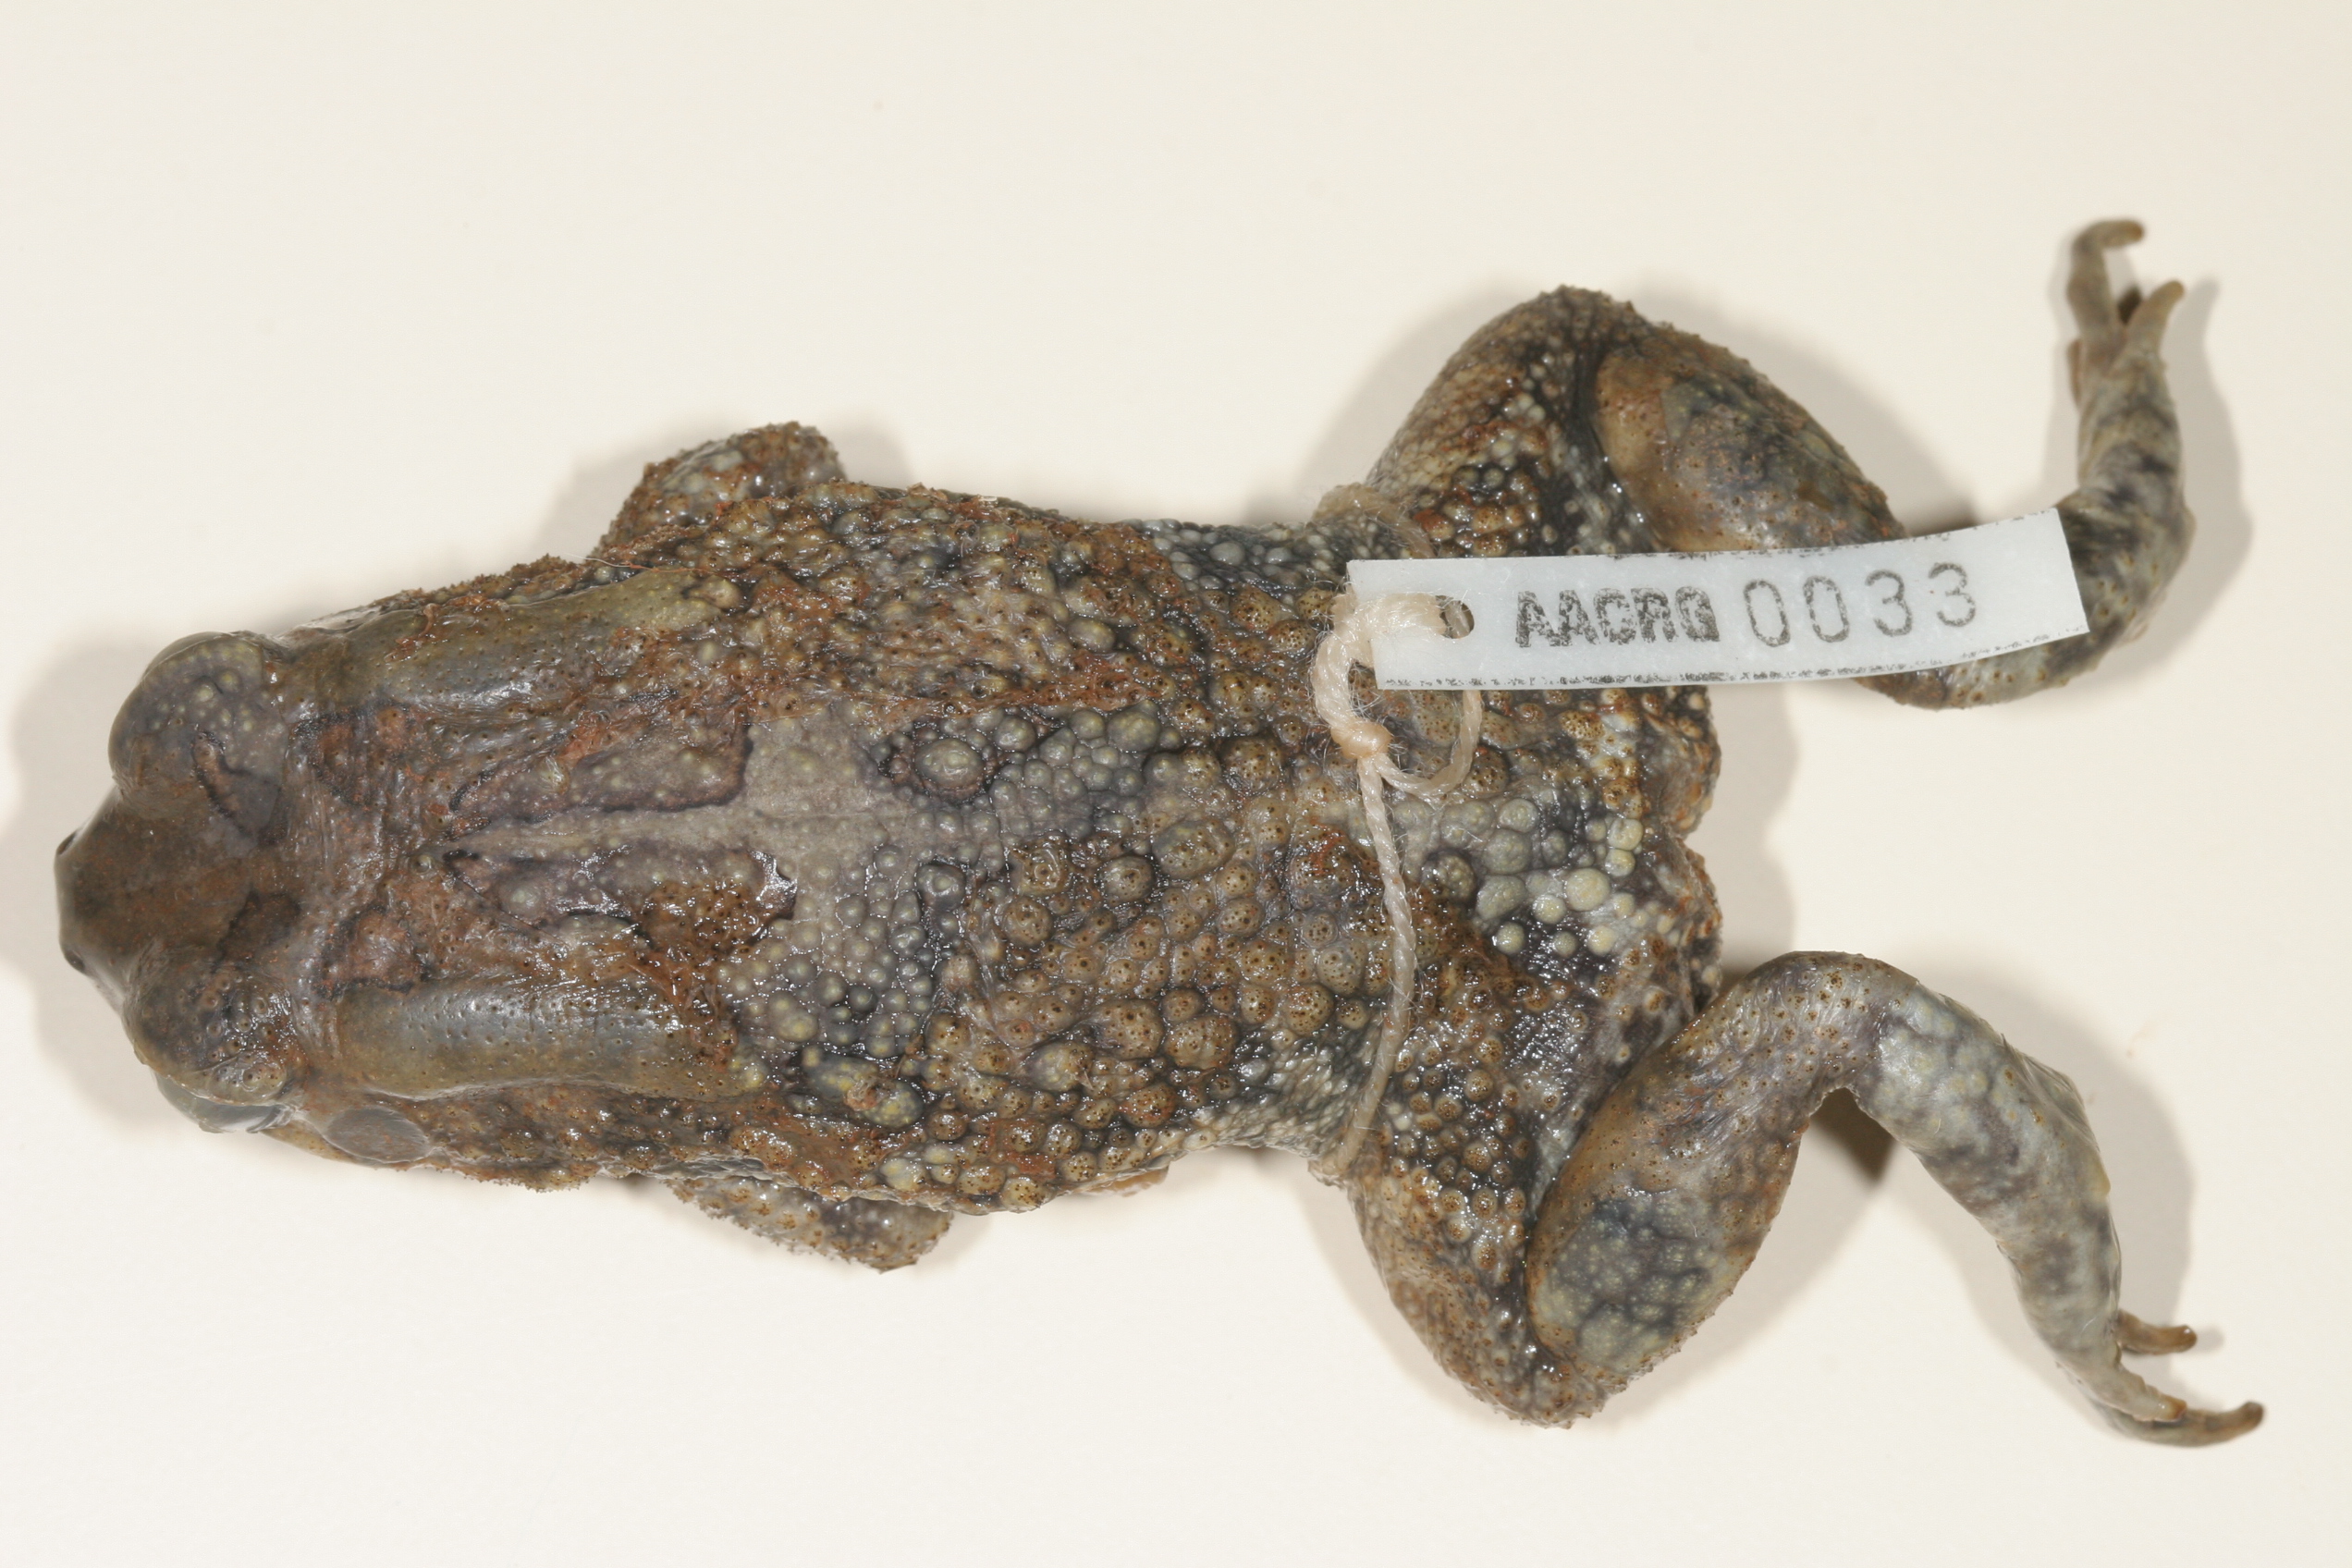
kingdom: Animalia
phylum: Chordata
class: Amphibia
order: Anura
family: Bufonidae
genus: Sclerophrys
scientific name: Sclerophrys garmani
